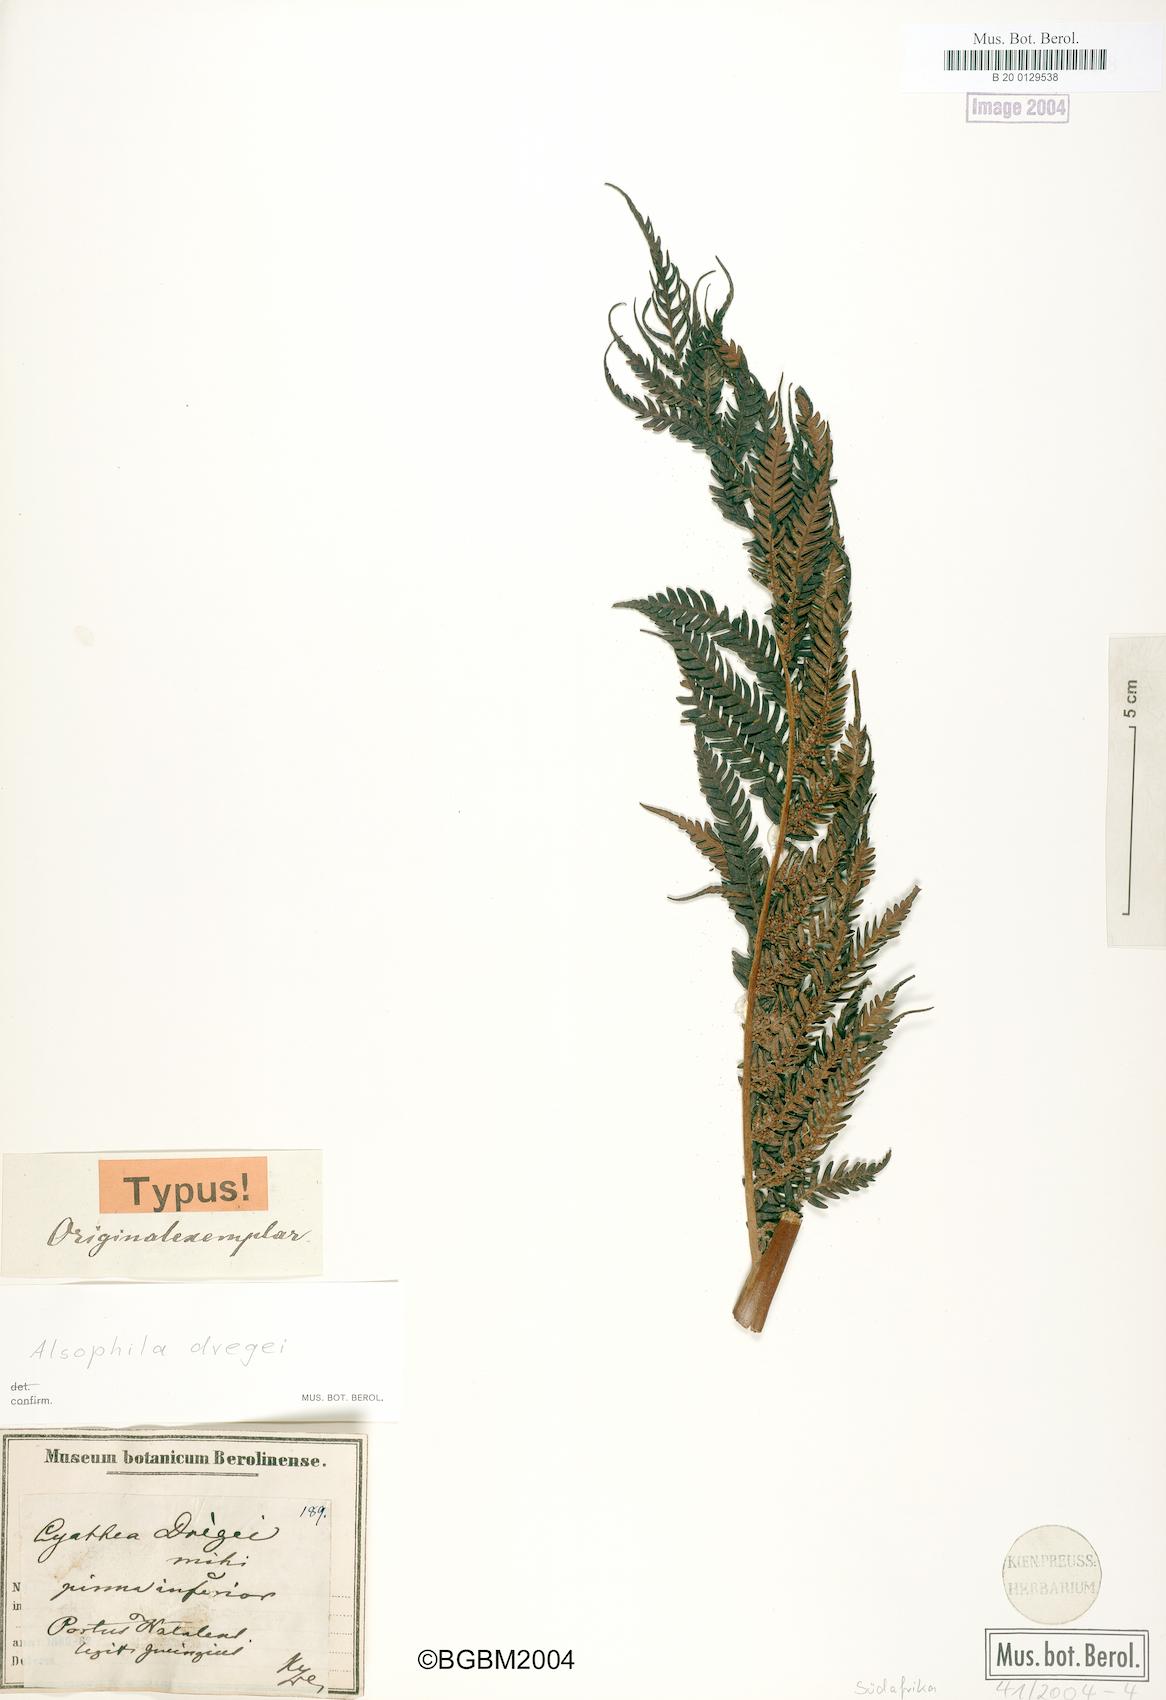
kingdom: Plantae
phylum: Tracheophyta
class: Polypodiopsida
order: Cyatheales
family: Cyatheaceae
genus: Alsophila
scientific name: Alsophila dregei
